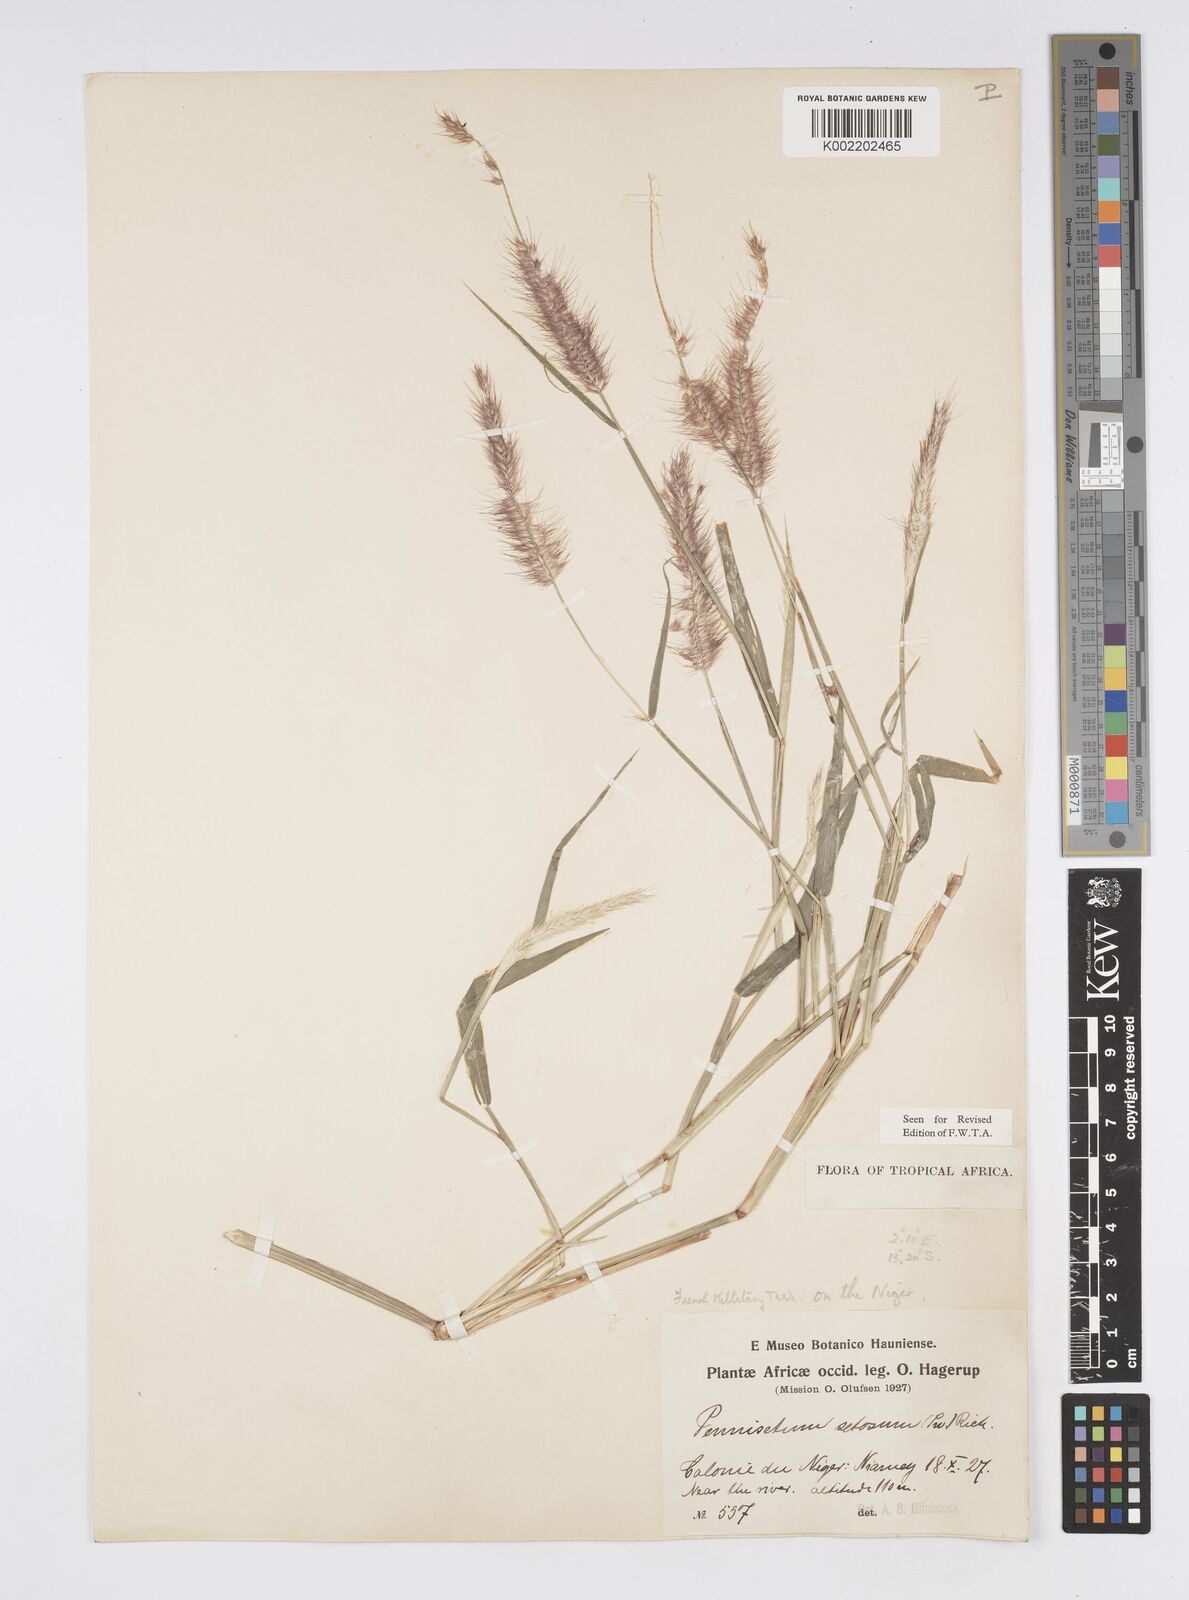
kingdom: Plantae
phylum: Tracheophyta
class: Liliopsida
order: Poales
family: Poaceae
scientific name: Poaceae
